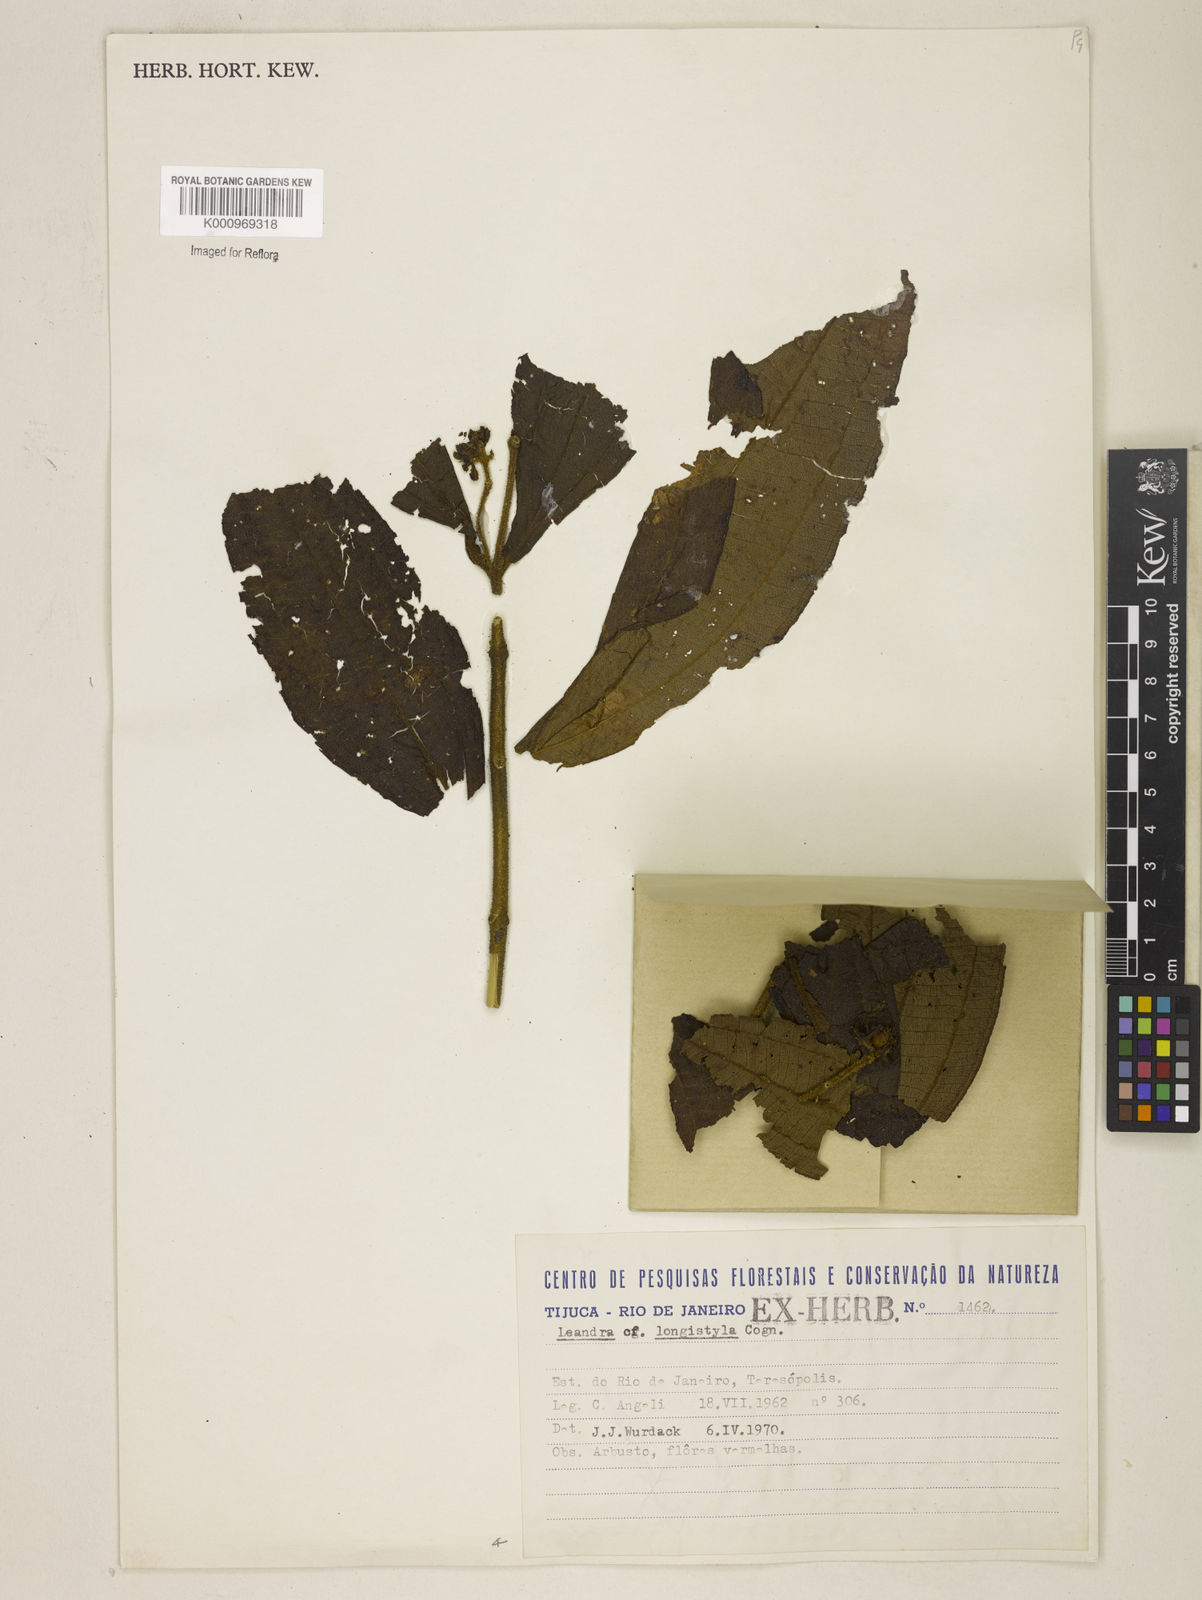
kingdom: Plantae
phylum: Tracheophyta
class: Magnoliopsida
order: Myrtales
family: Melastomataceae
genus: Miconia
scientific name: Miconia pectinata
